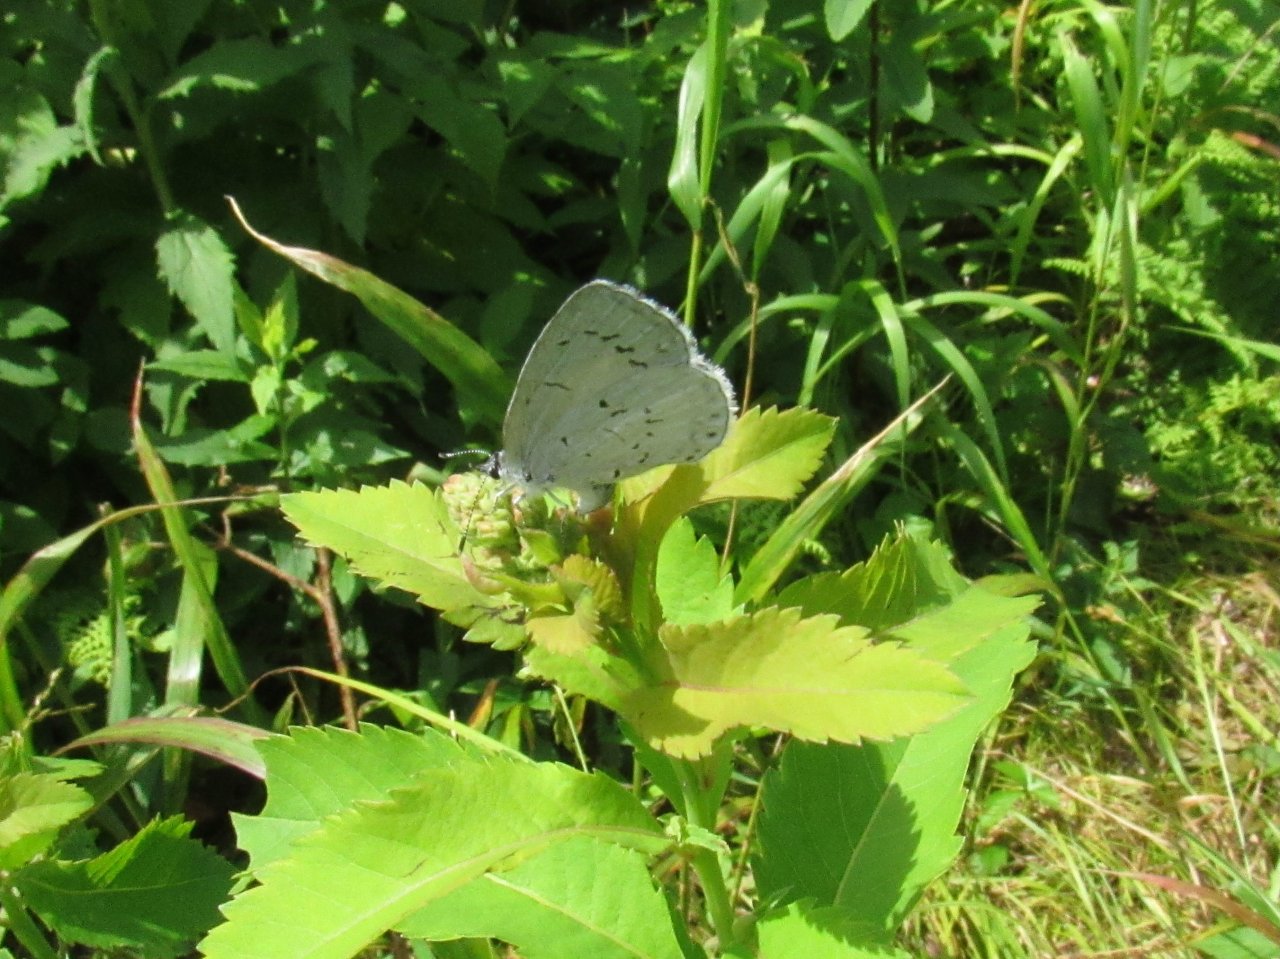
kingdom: Animalia
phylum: Arthropoda
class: Insecta
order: Lepidoptera
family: Lycaenidae
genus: Cyaniris
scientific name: Cyaniris neglecta
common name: Summer Azure
